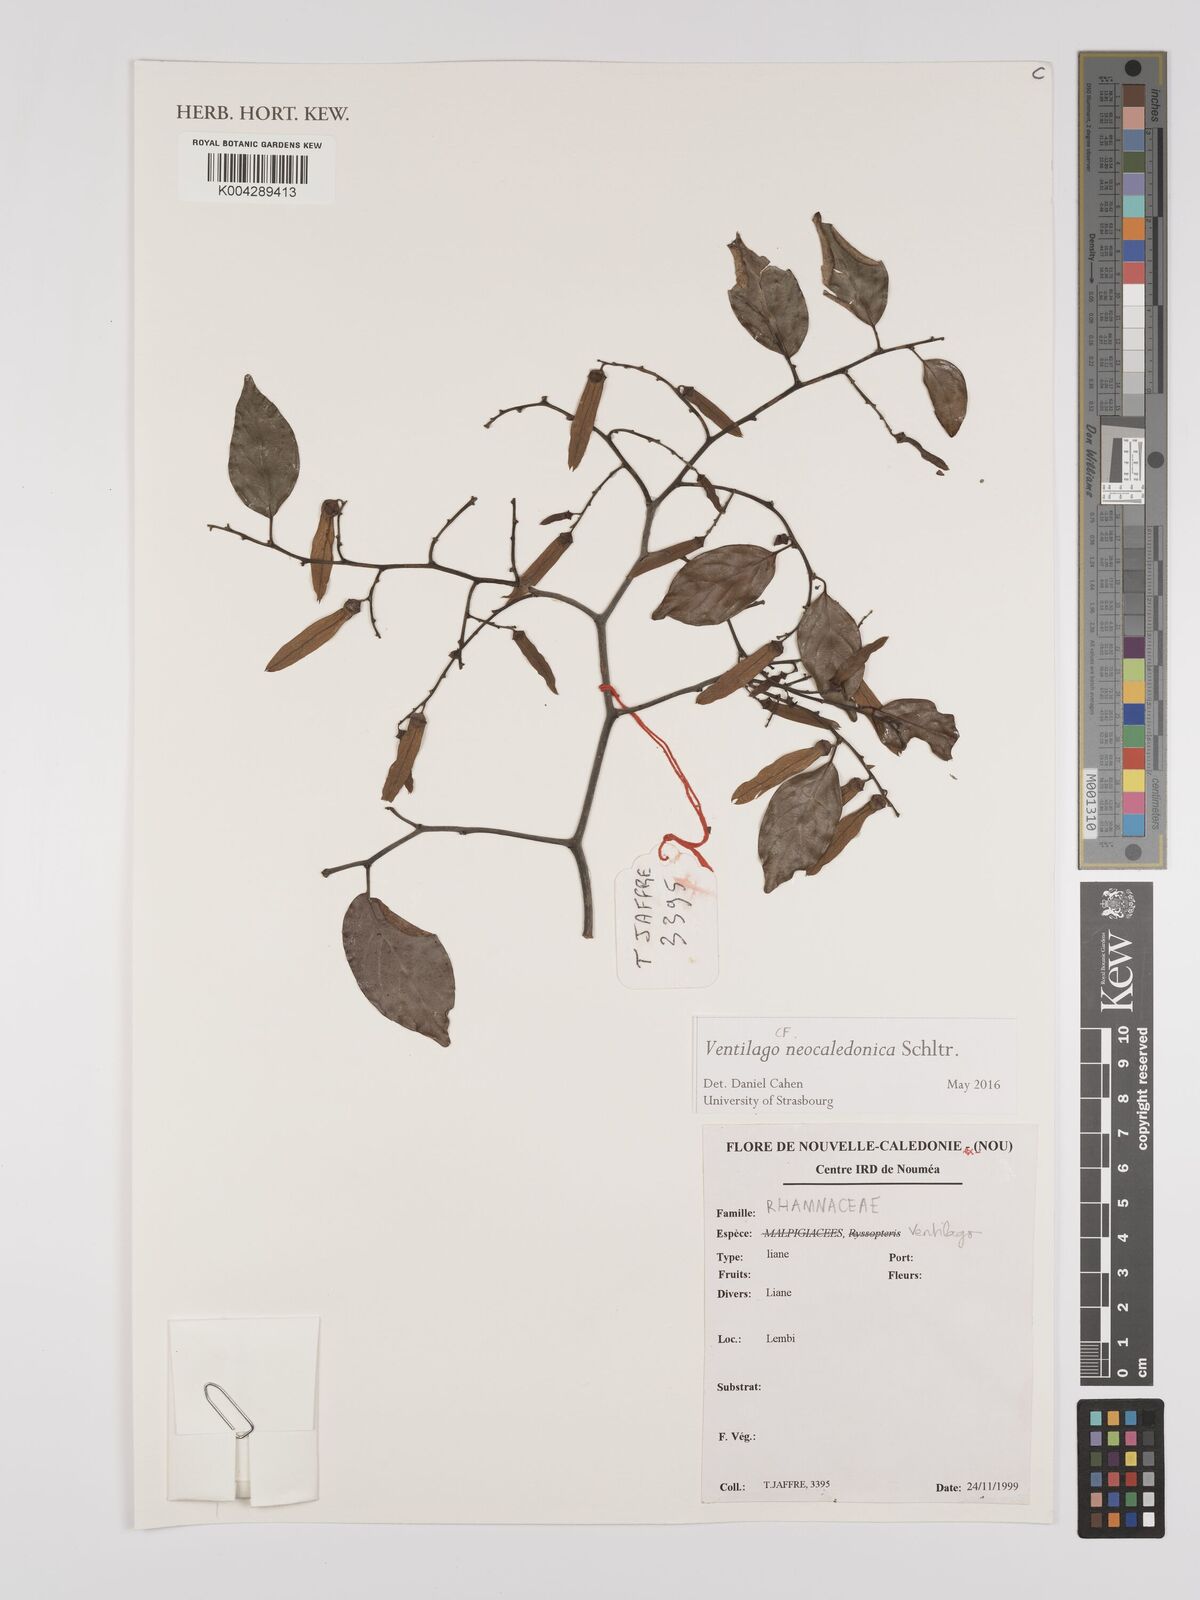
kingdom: Plantae
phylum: Tracheophyta
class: Magnoliopsida
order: Rosales
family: Rhamnaceae
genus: Ventilago
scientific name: Ventilago neocaledonica
